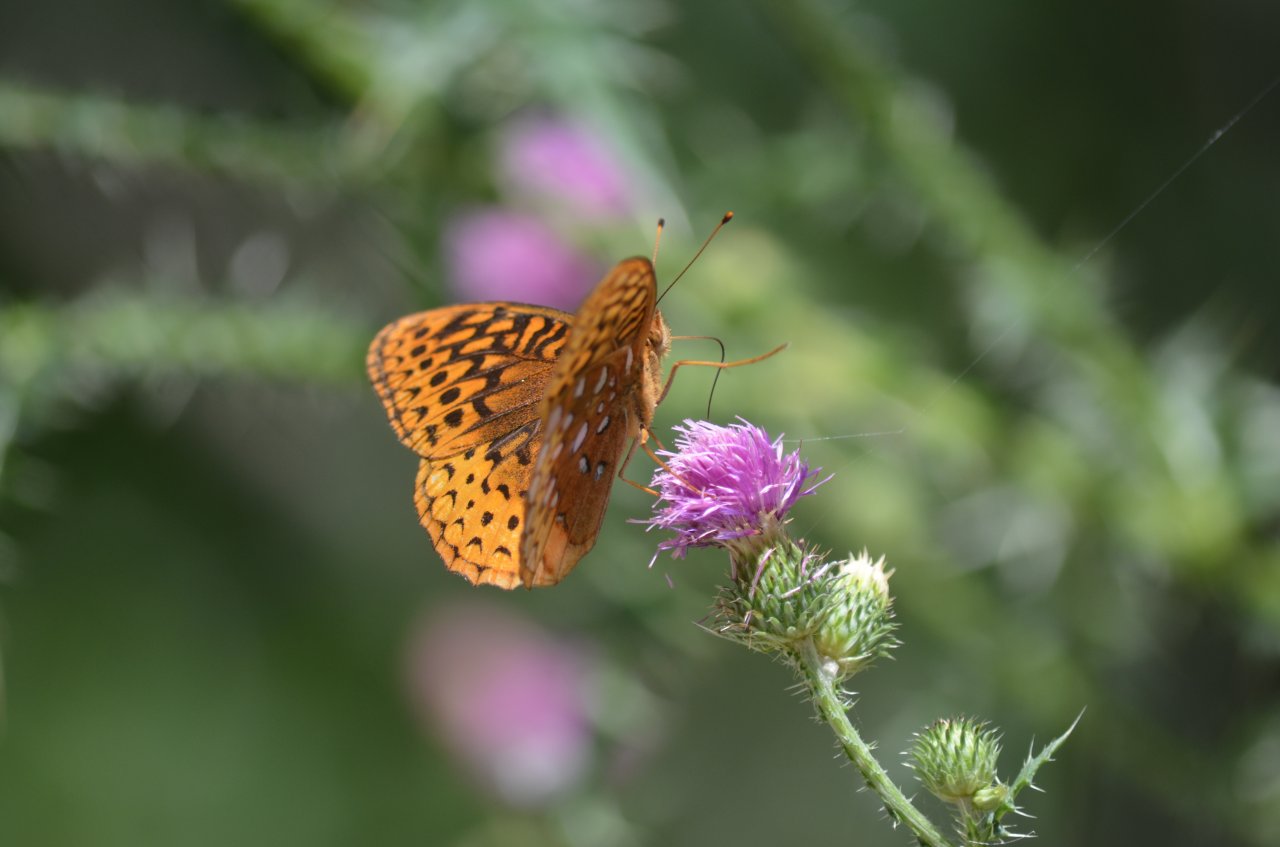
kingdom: Animalia
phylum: Arthropoda
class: Insecta
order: Lepidoptera
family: Nymphalidae
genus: Speyeria
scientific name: Speyeria cybele
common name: Great Spangled Fritillary
